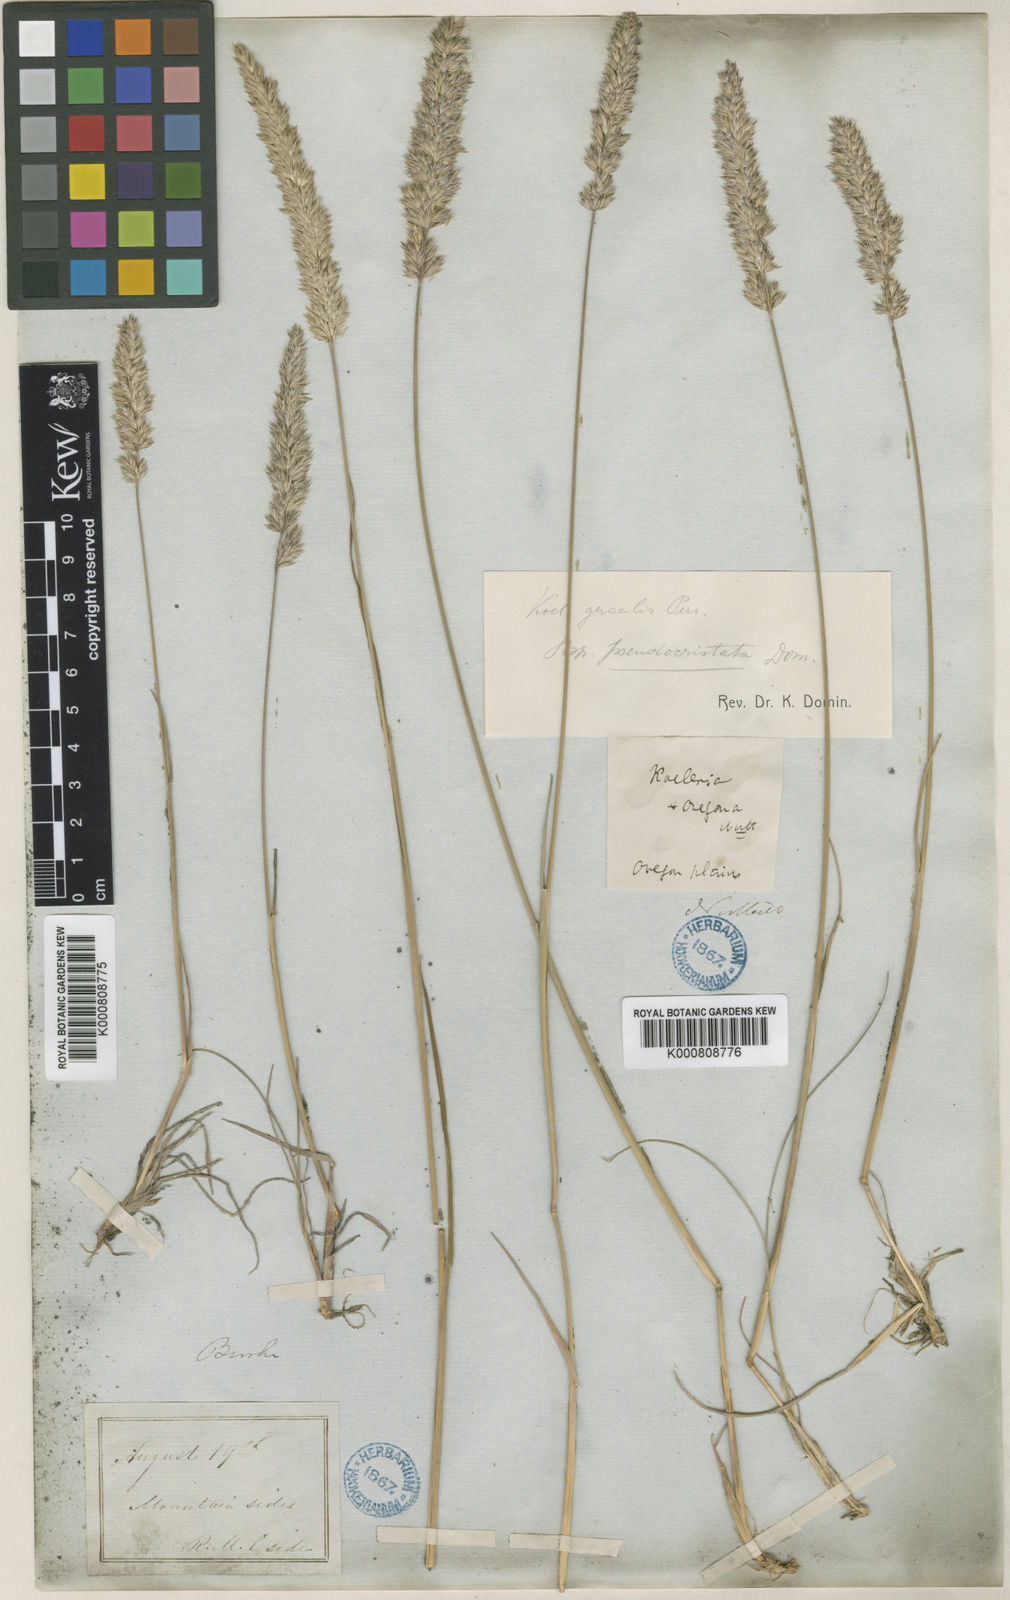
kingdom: Plantae
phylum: Tracheophyta
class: Liliopsida
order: Poales
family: Poaceae
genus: Koeleria
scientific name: Koeleria macrantha
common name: Crested hair-grass
